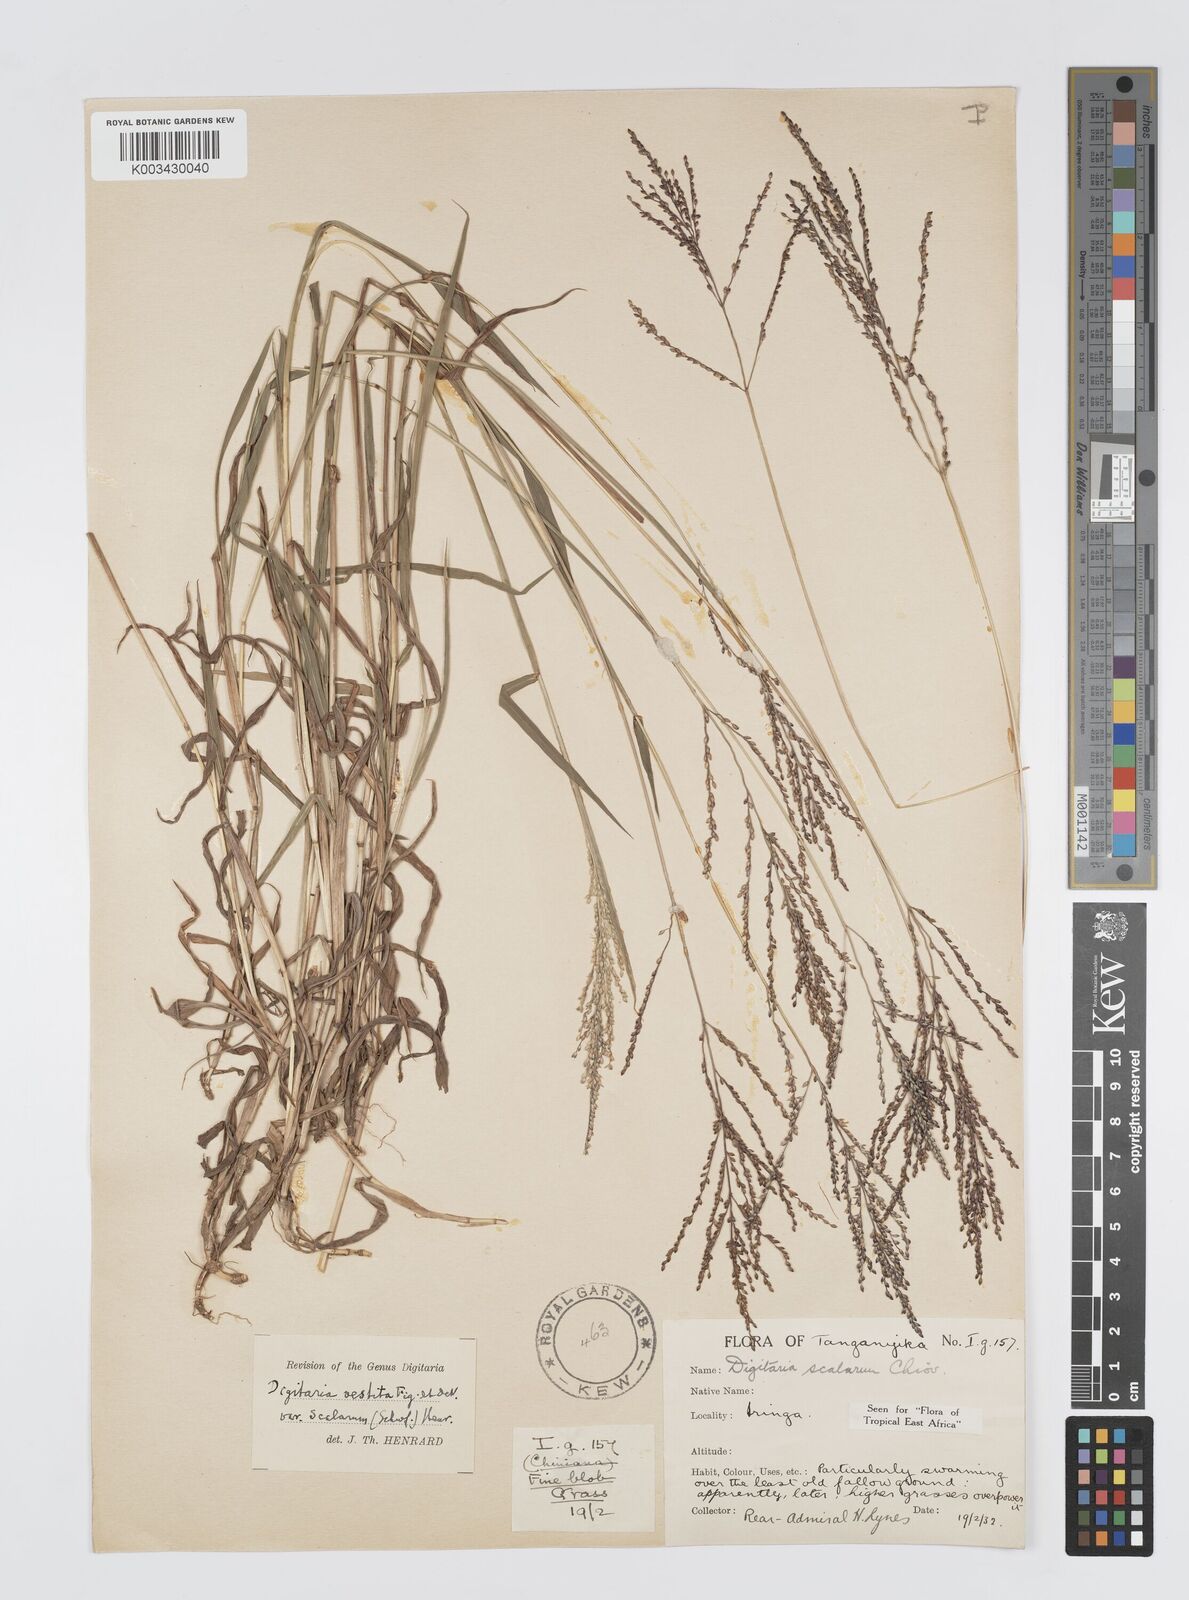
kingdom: Plantae
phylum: Tracheophyta
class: Liliopsida
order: Poales
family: Poaceae
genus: Digitaria
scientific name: Digitaria abyssinica
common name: African couchgrass
